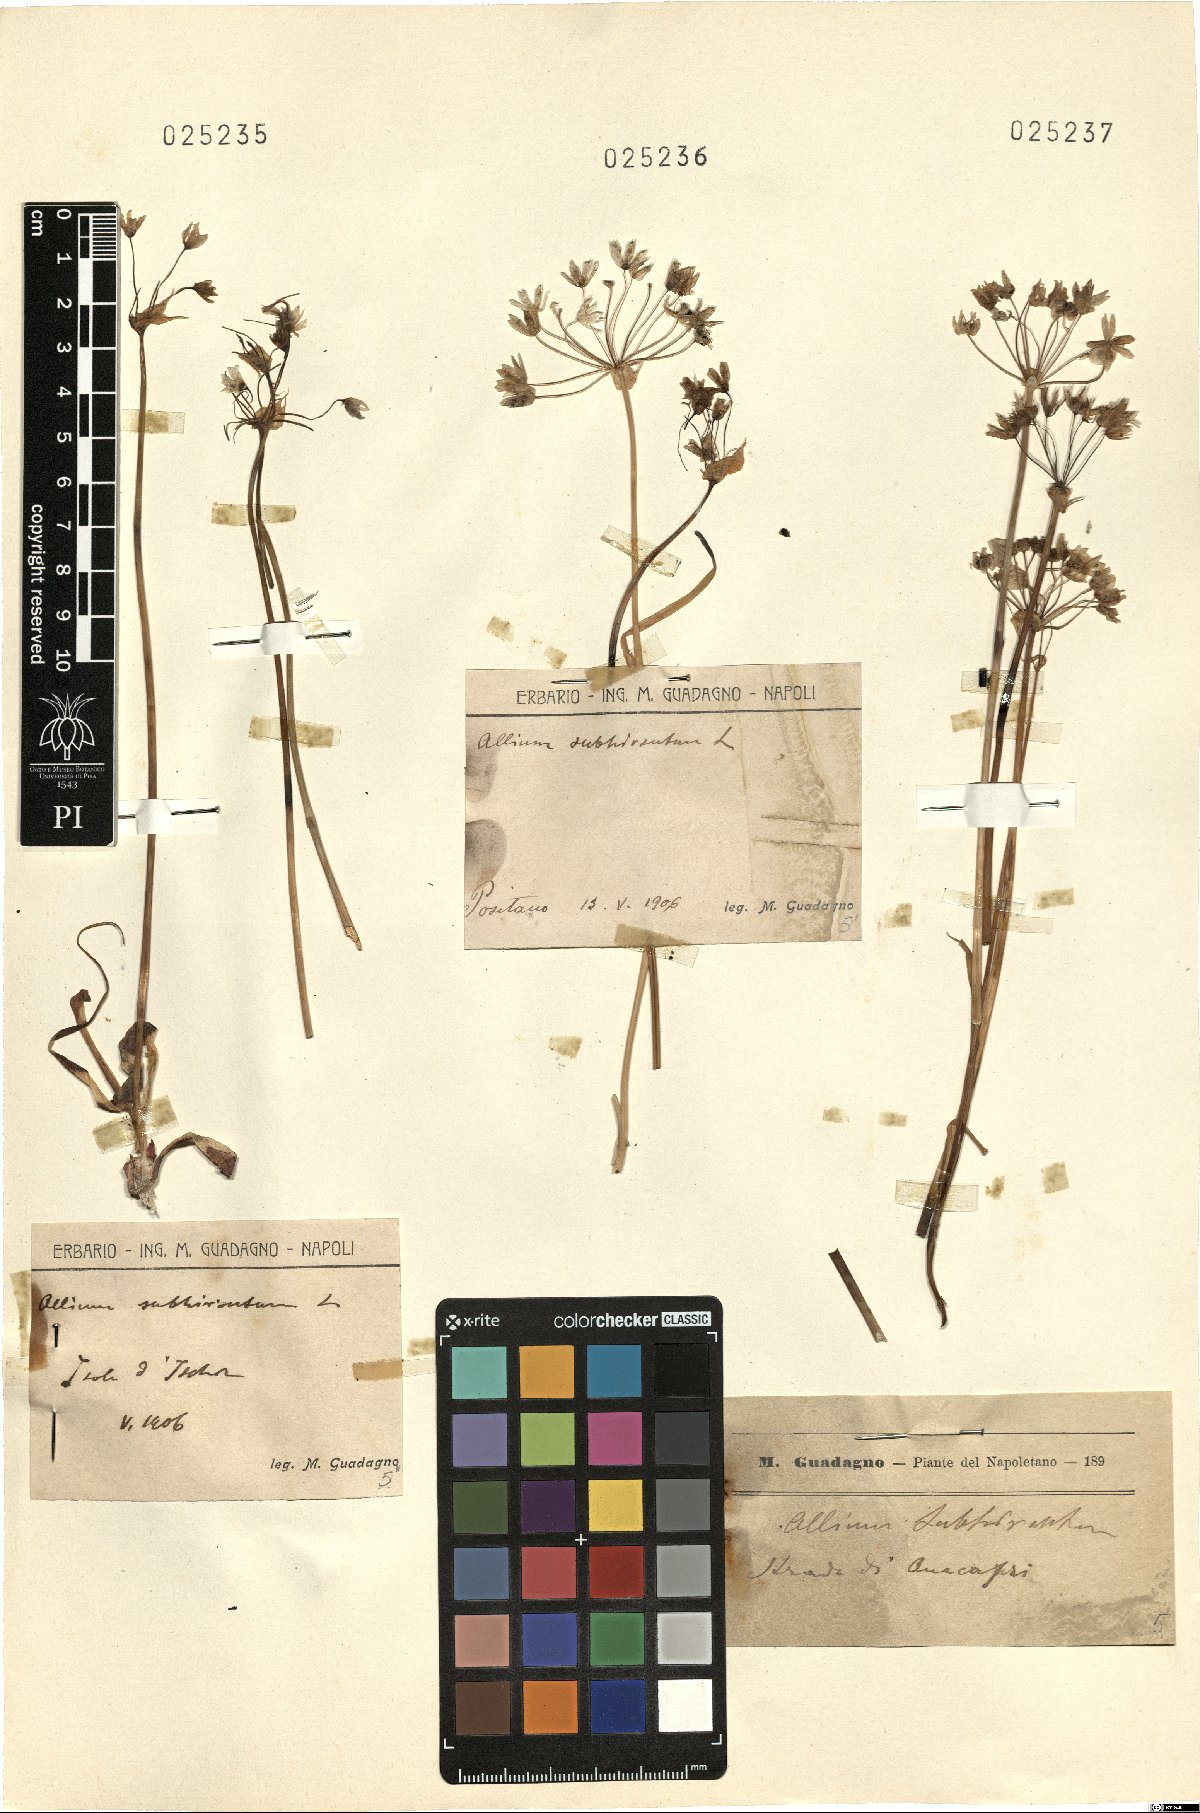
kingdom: Plantae
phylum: Tracheophyta
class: Liliopsida
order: Asparagales
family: Amaryllidaceae
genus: Allium
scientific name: Allium subhirsutum
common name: Hairy garlic
